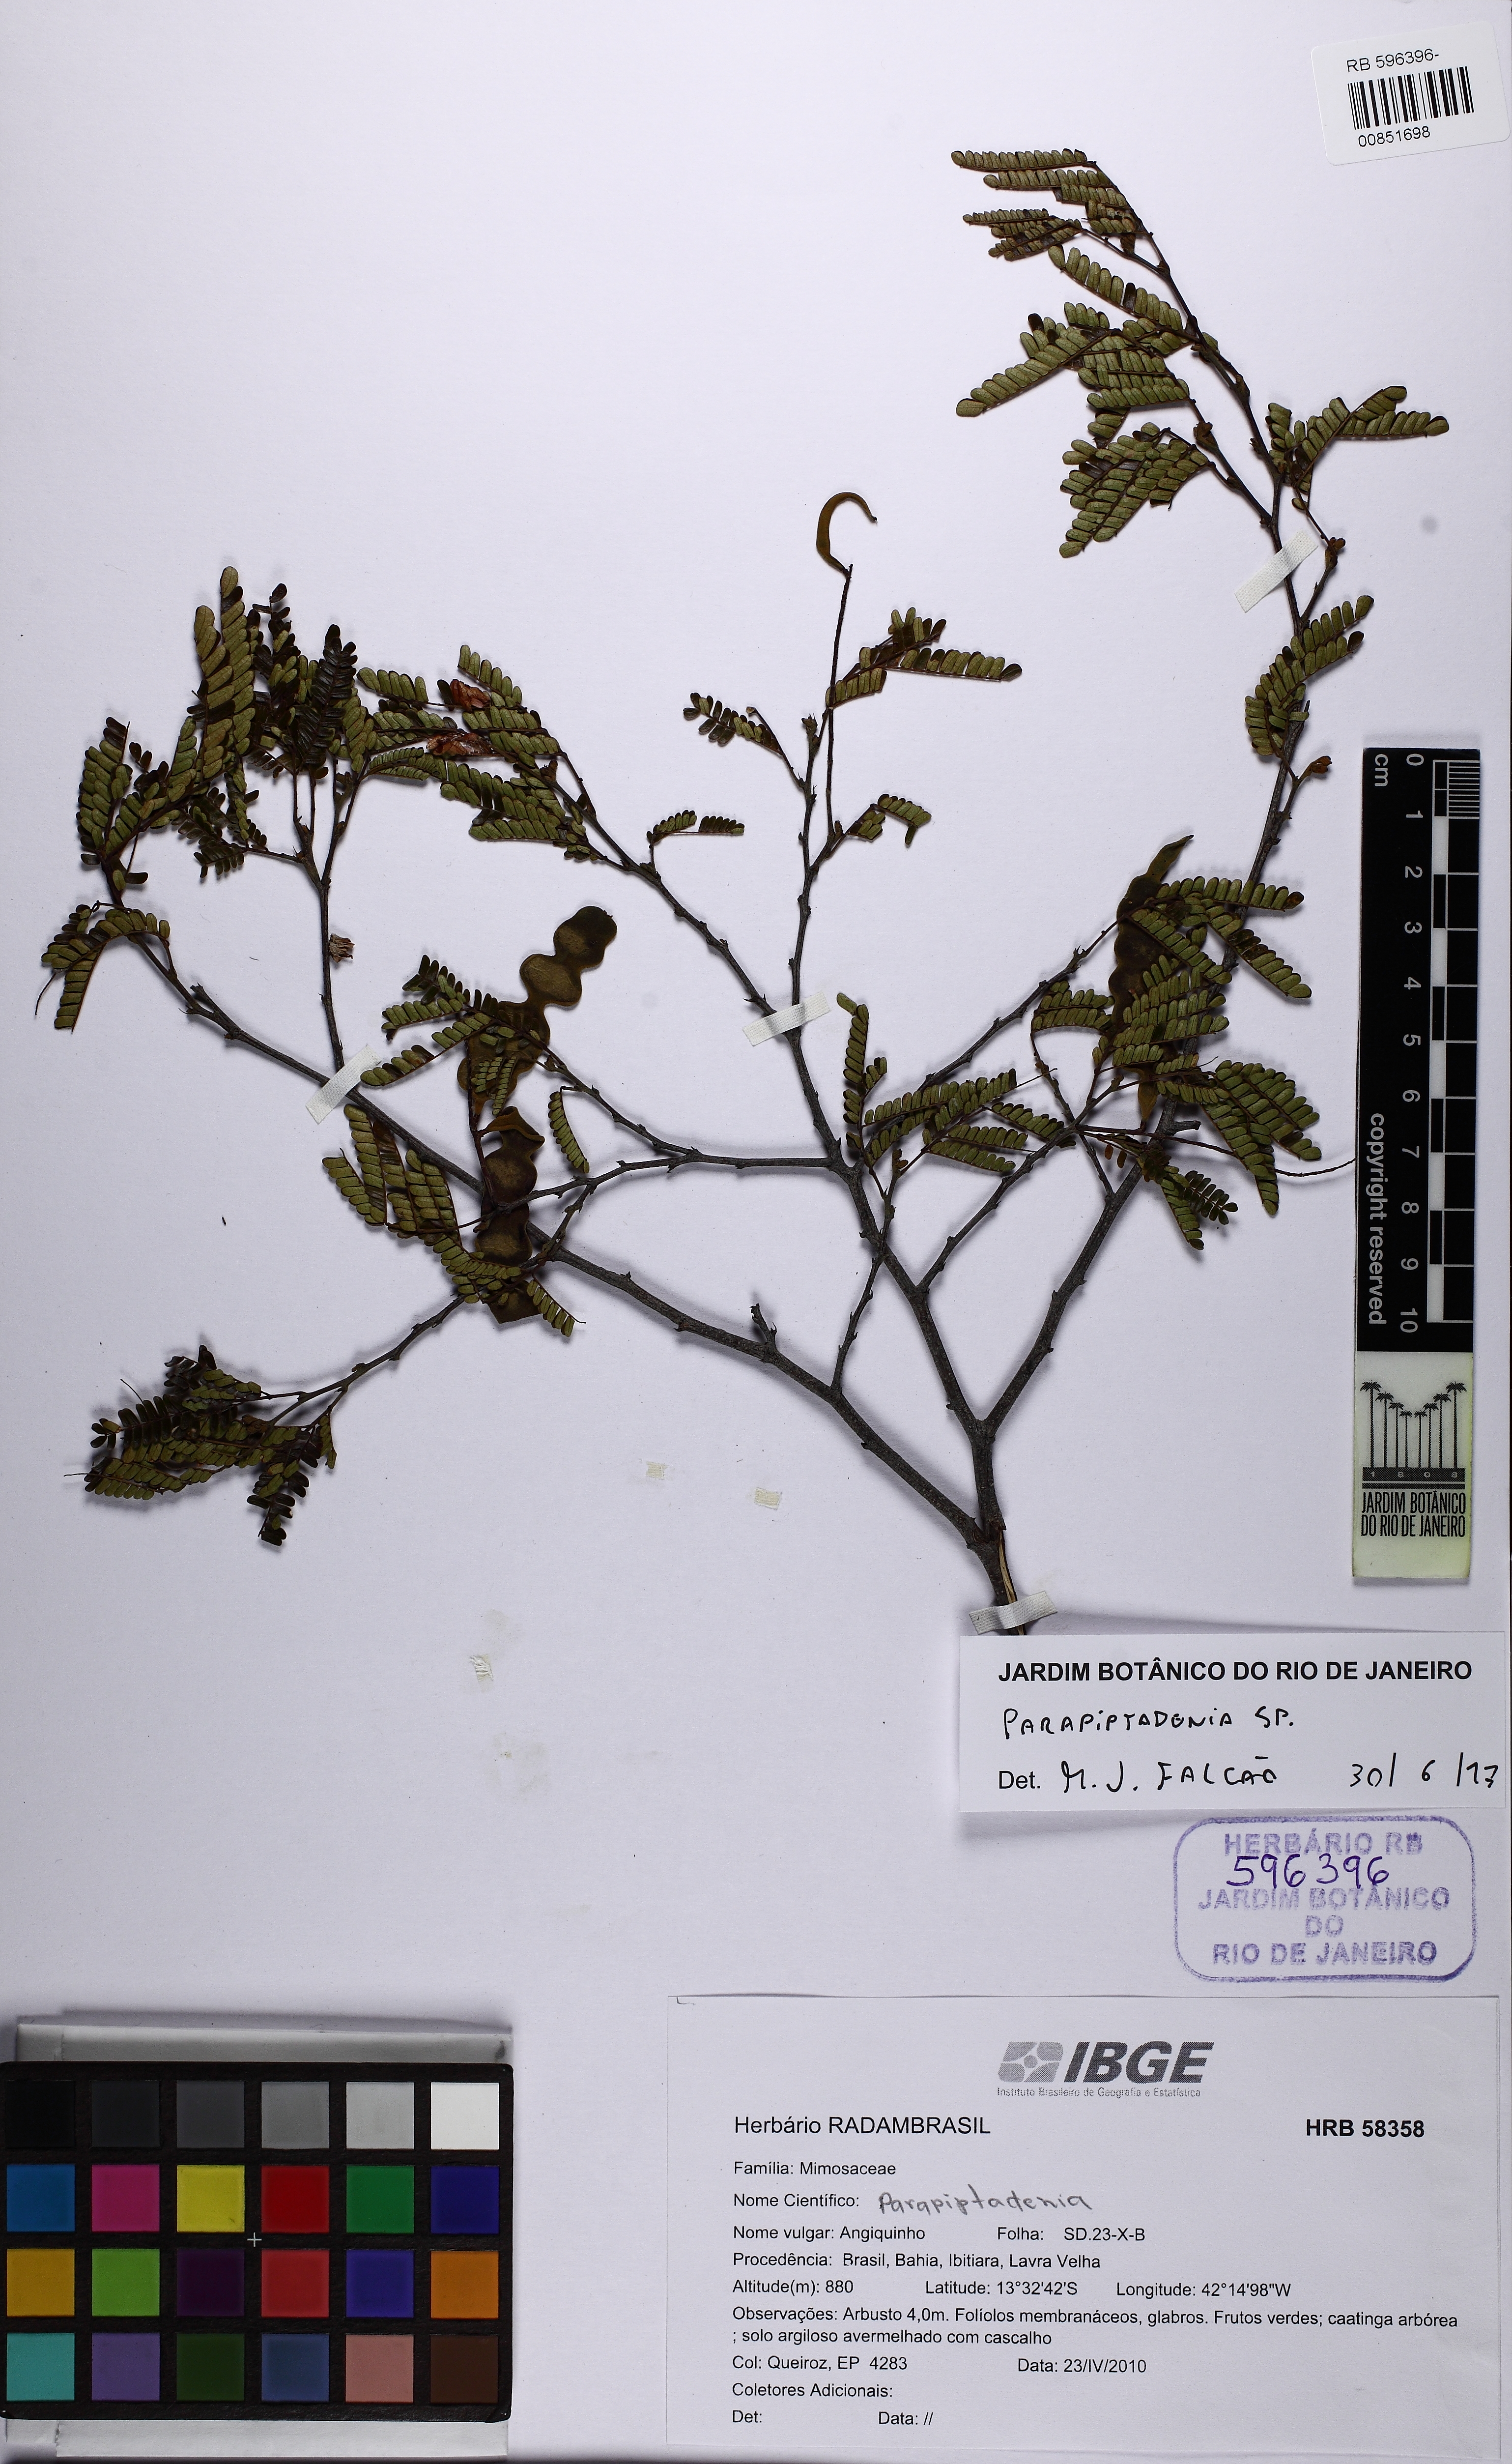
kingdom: Plantae
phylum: Tracheophyta
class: Magnoliopsida
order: Fabales
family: Fabaceae
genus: Parapiptadenia
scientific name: Parapiptadenia
